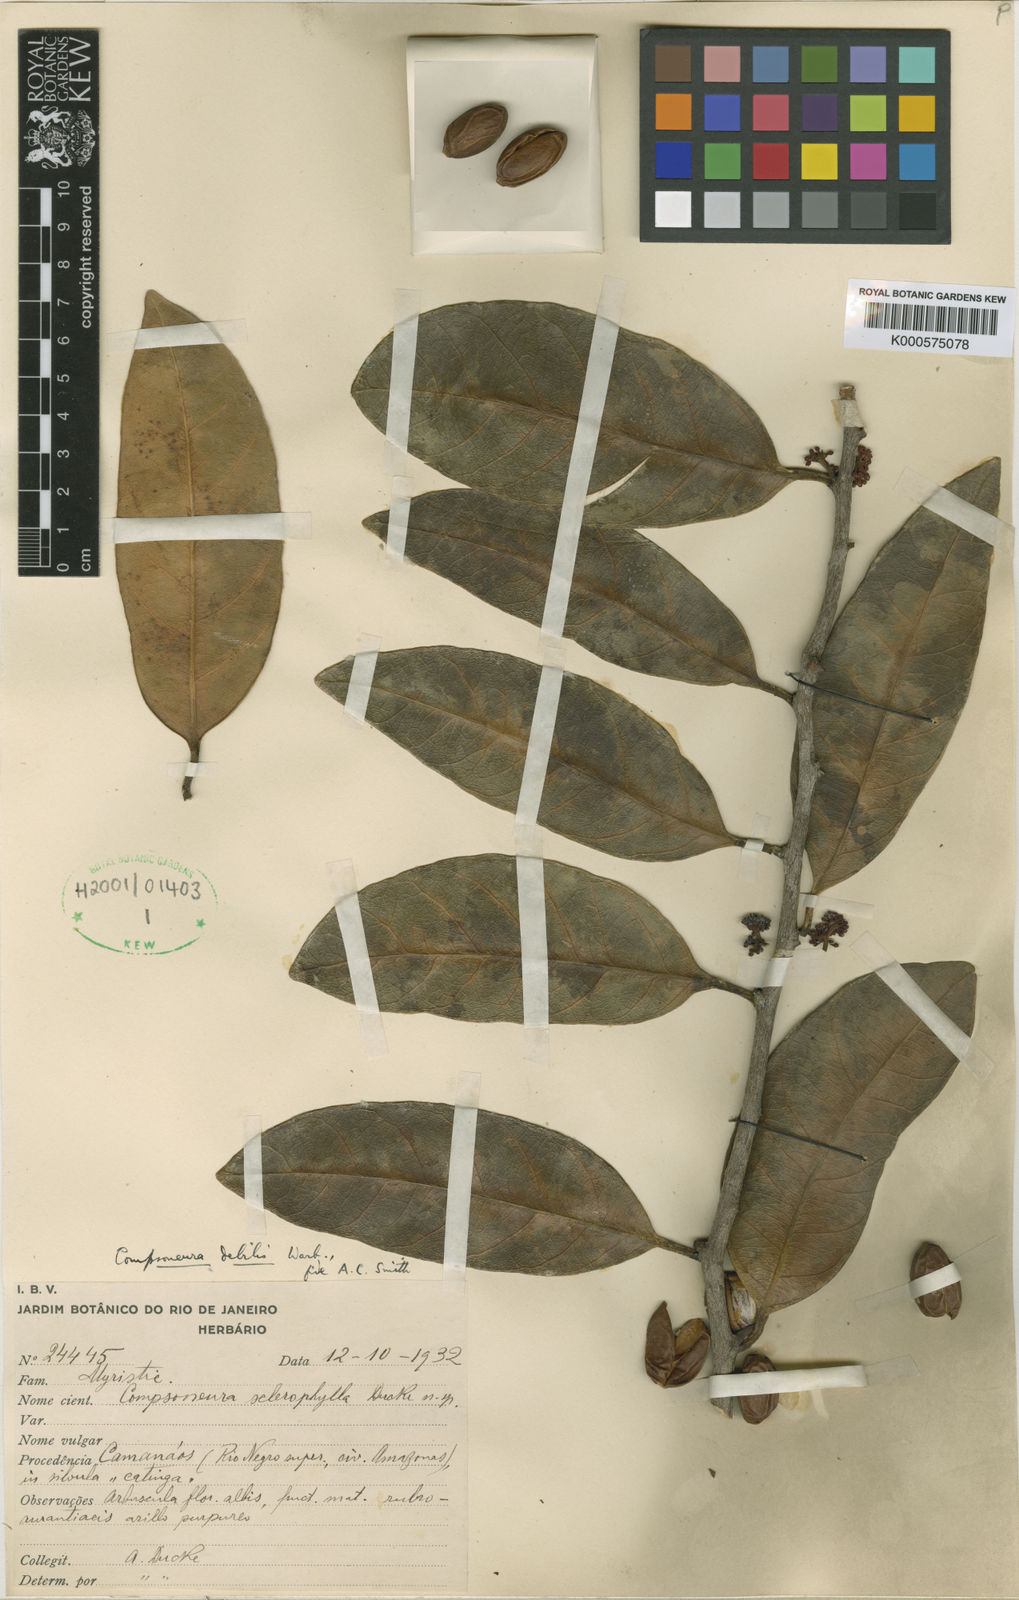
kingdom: Plantae
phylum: Tracheophyta
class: Magnoliopsida
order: Magnoliales
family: Myristicaceae
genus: Compsoneura
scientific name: Compsoneura debilis
